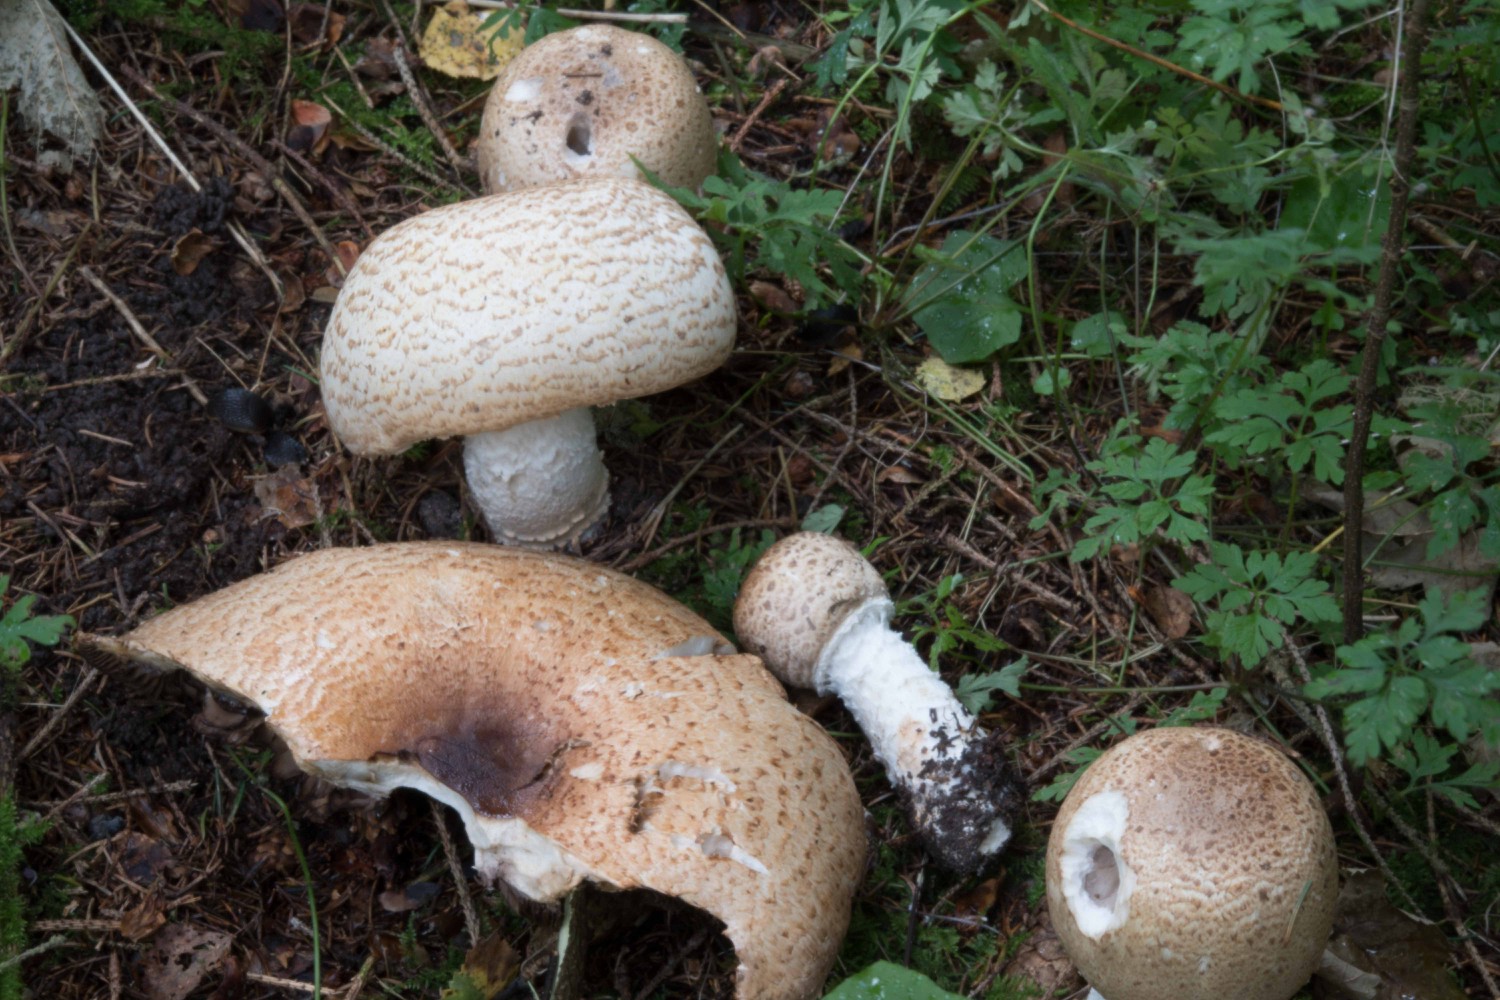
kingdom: Fungi
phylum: Basidiomycota
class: Agaricomycetes
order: Agaricales
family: Agaricaceae
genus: Agaricus
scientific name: Agaricus augustus
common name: prægtig champignon
